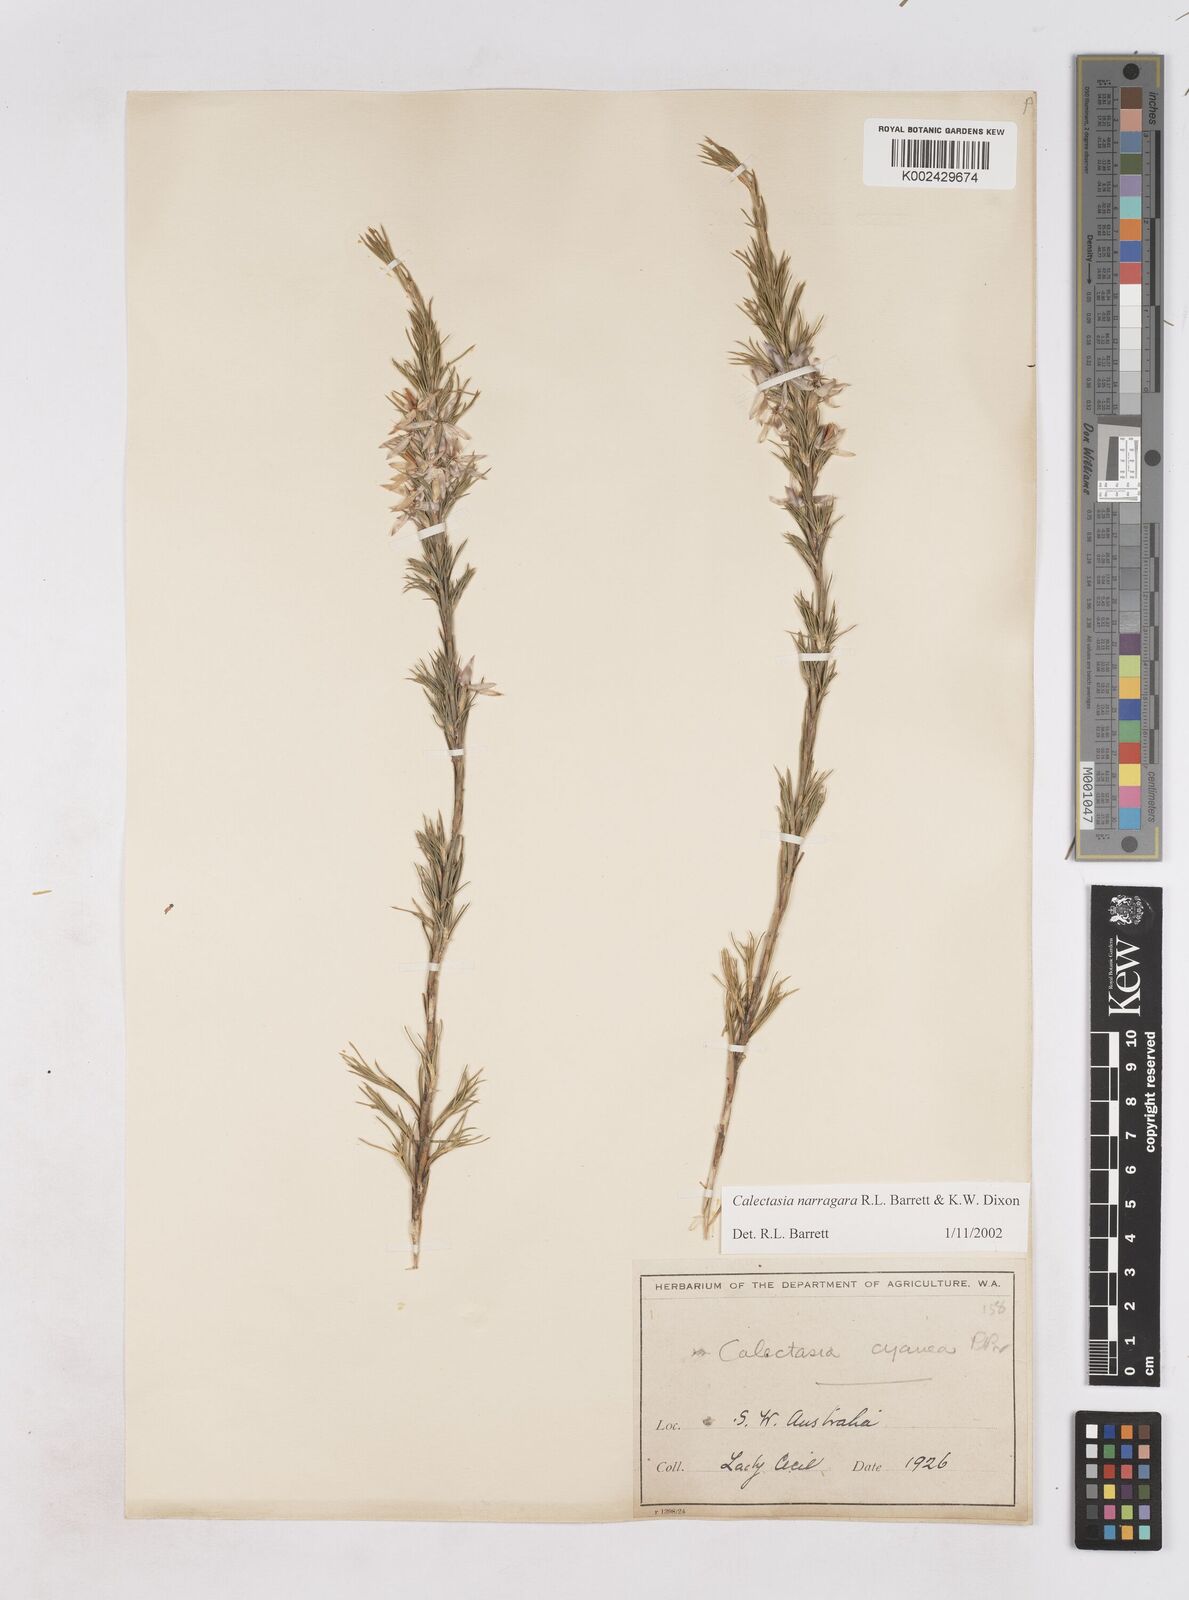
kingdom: Plantae
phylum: Tracheophyta
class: Liliopsida
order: Arecales
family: Dasypogonaceae
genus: Calectasia
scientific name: Calectasia narragara
